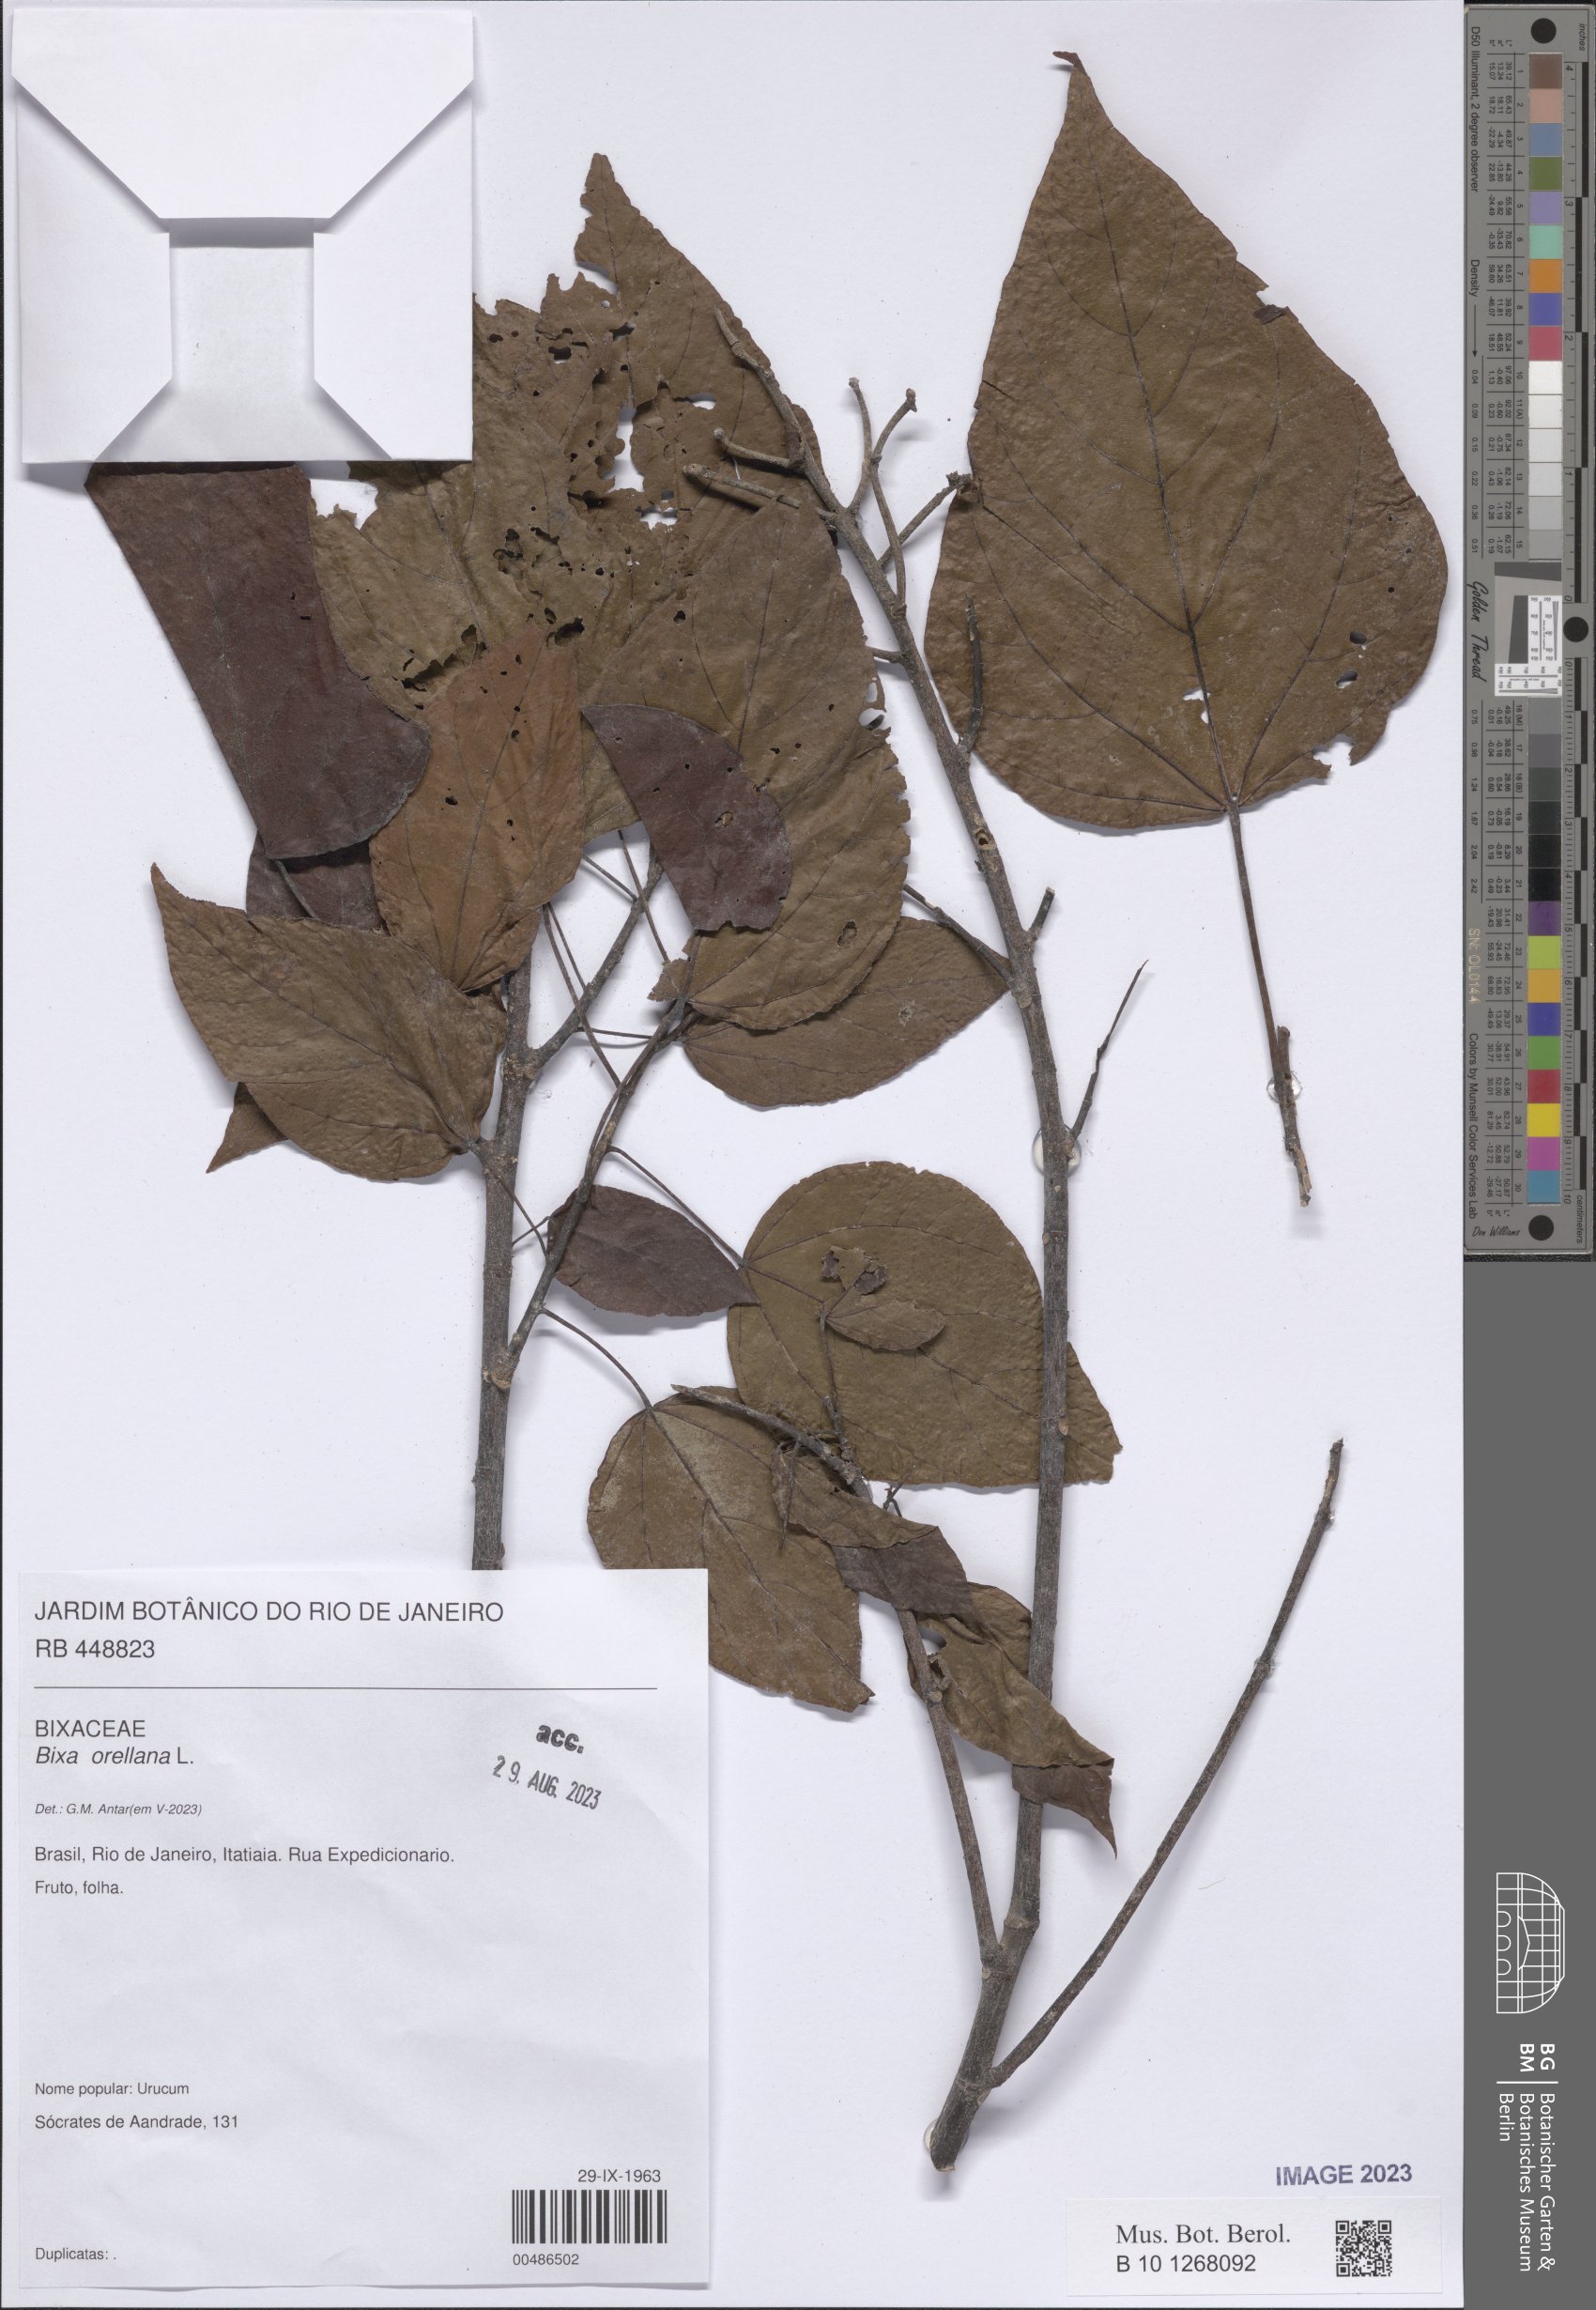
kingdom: Plantae
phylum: Tracheophyta
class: Magnoliopsida
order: Malvales
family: Bixaceae
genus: Bixa
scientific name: Bixa orellana
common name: Lipsticktree
